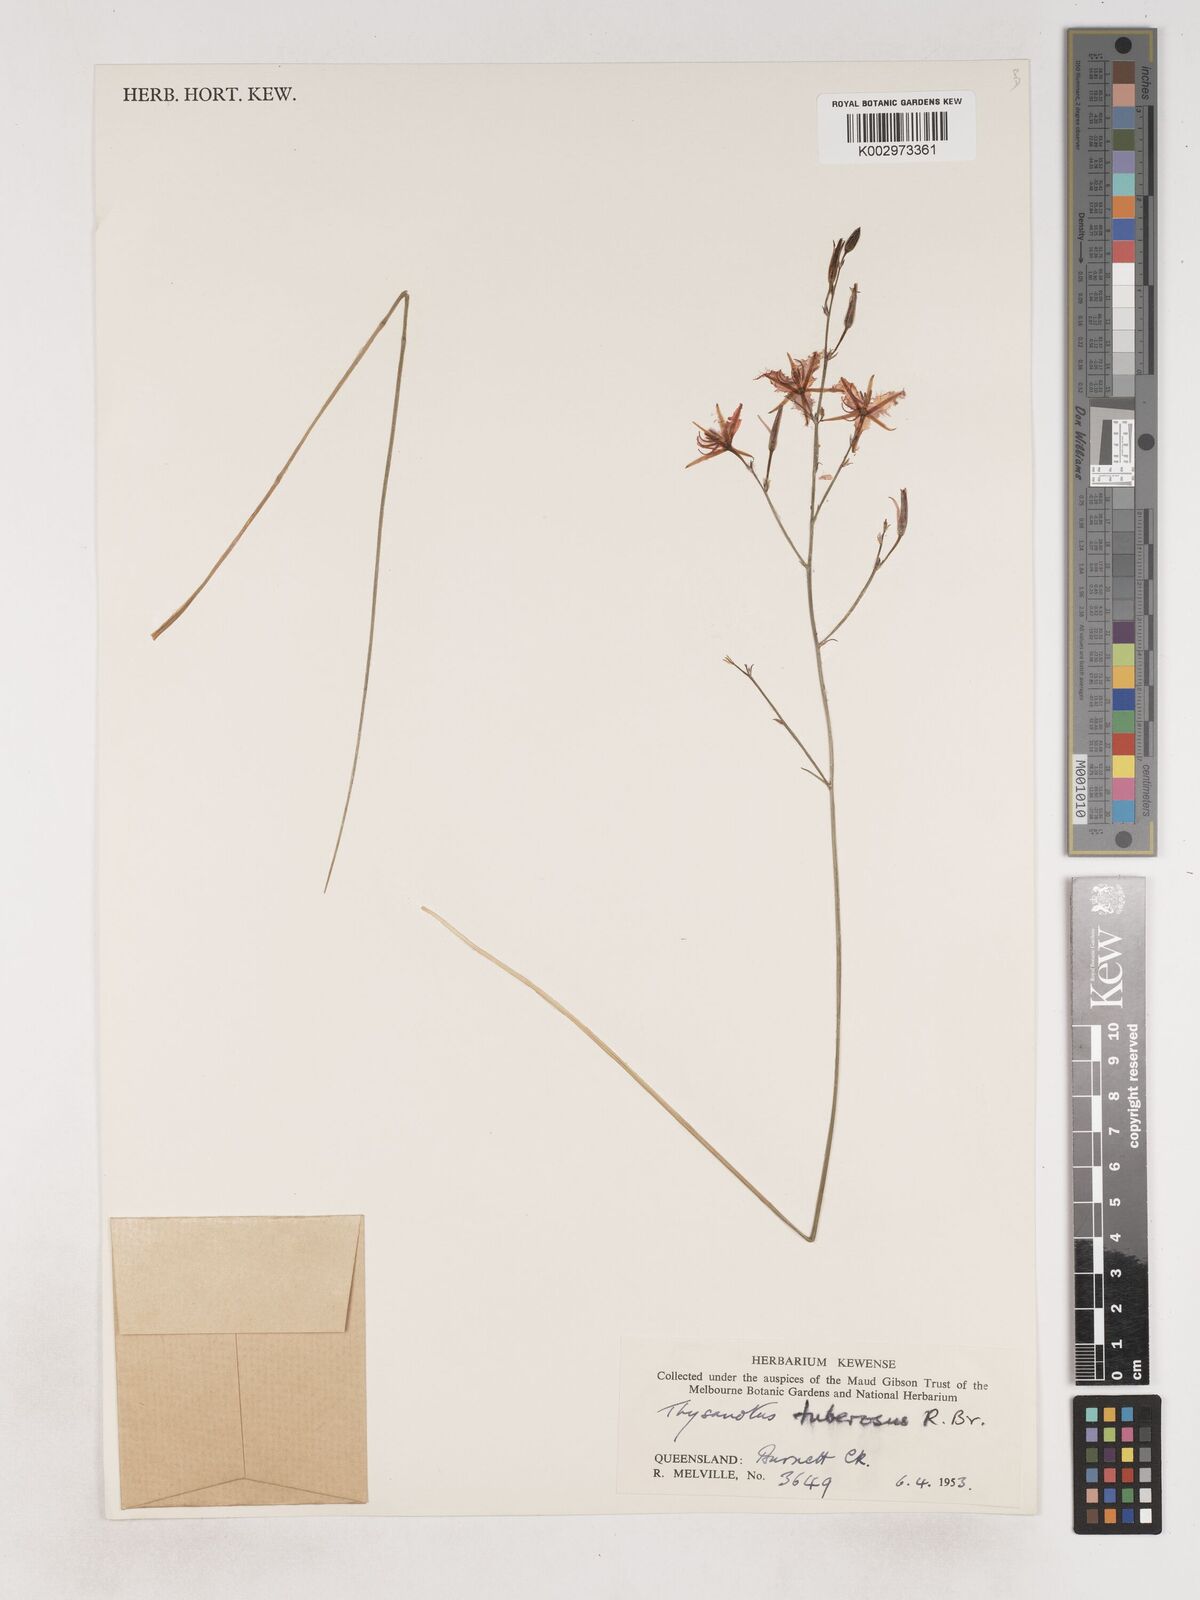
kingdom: Plantae
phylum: Tracheophyta
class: Liliopsida
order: Asparagales
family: Asparagaceae
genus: Thysanotus
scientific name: Thysanotus tuberosus
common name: Common fringed-lily
